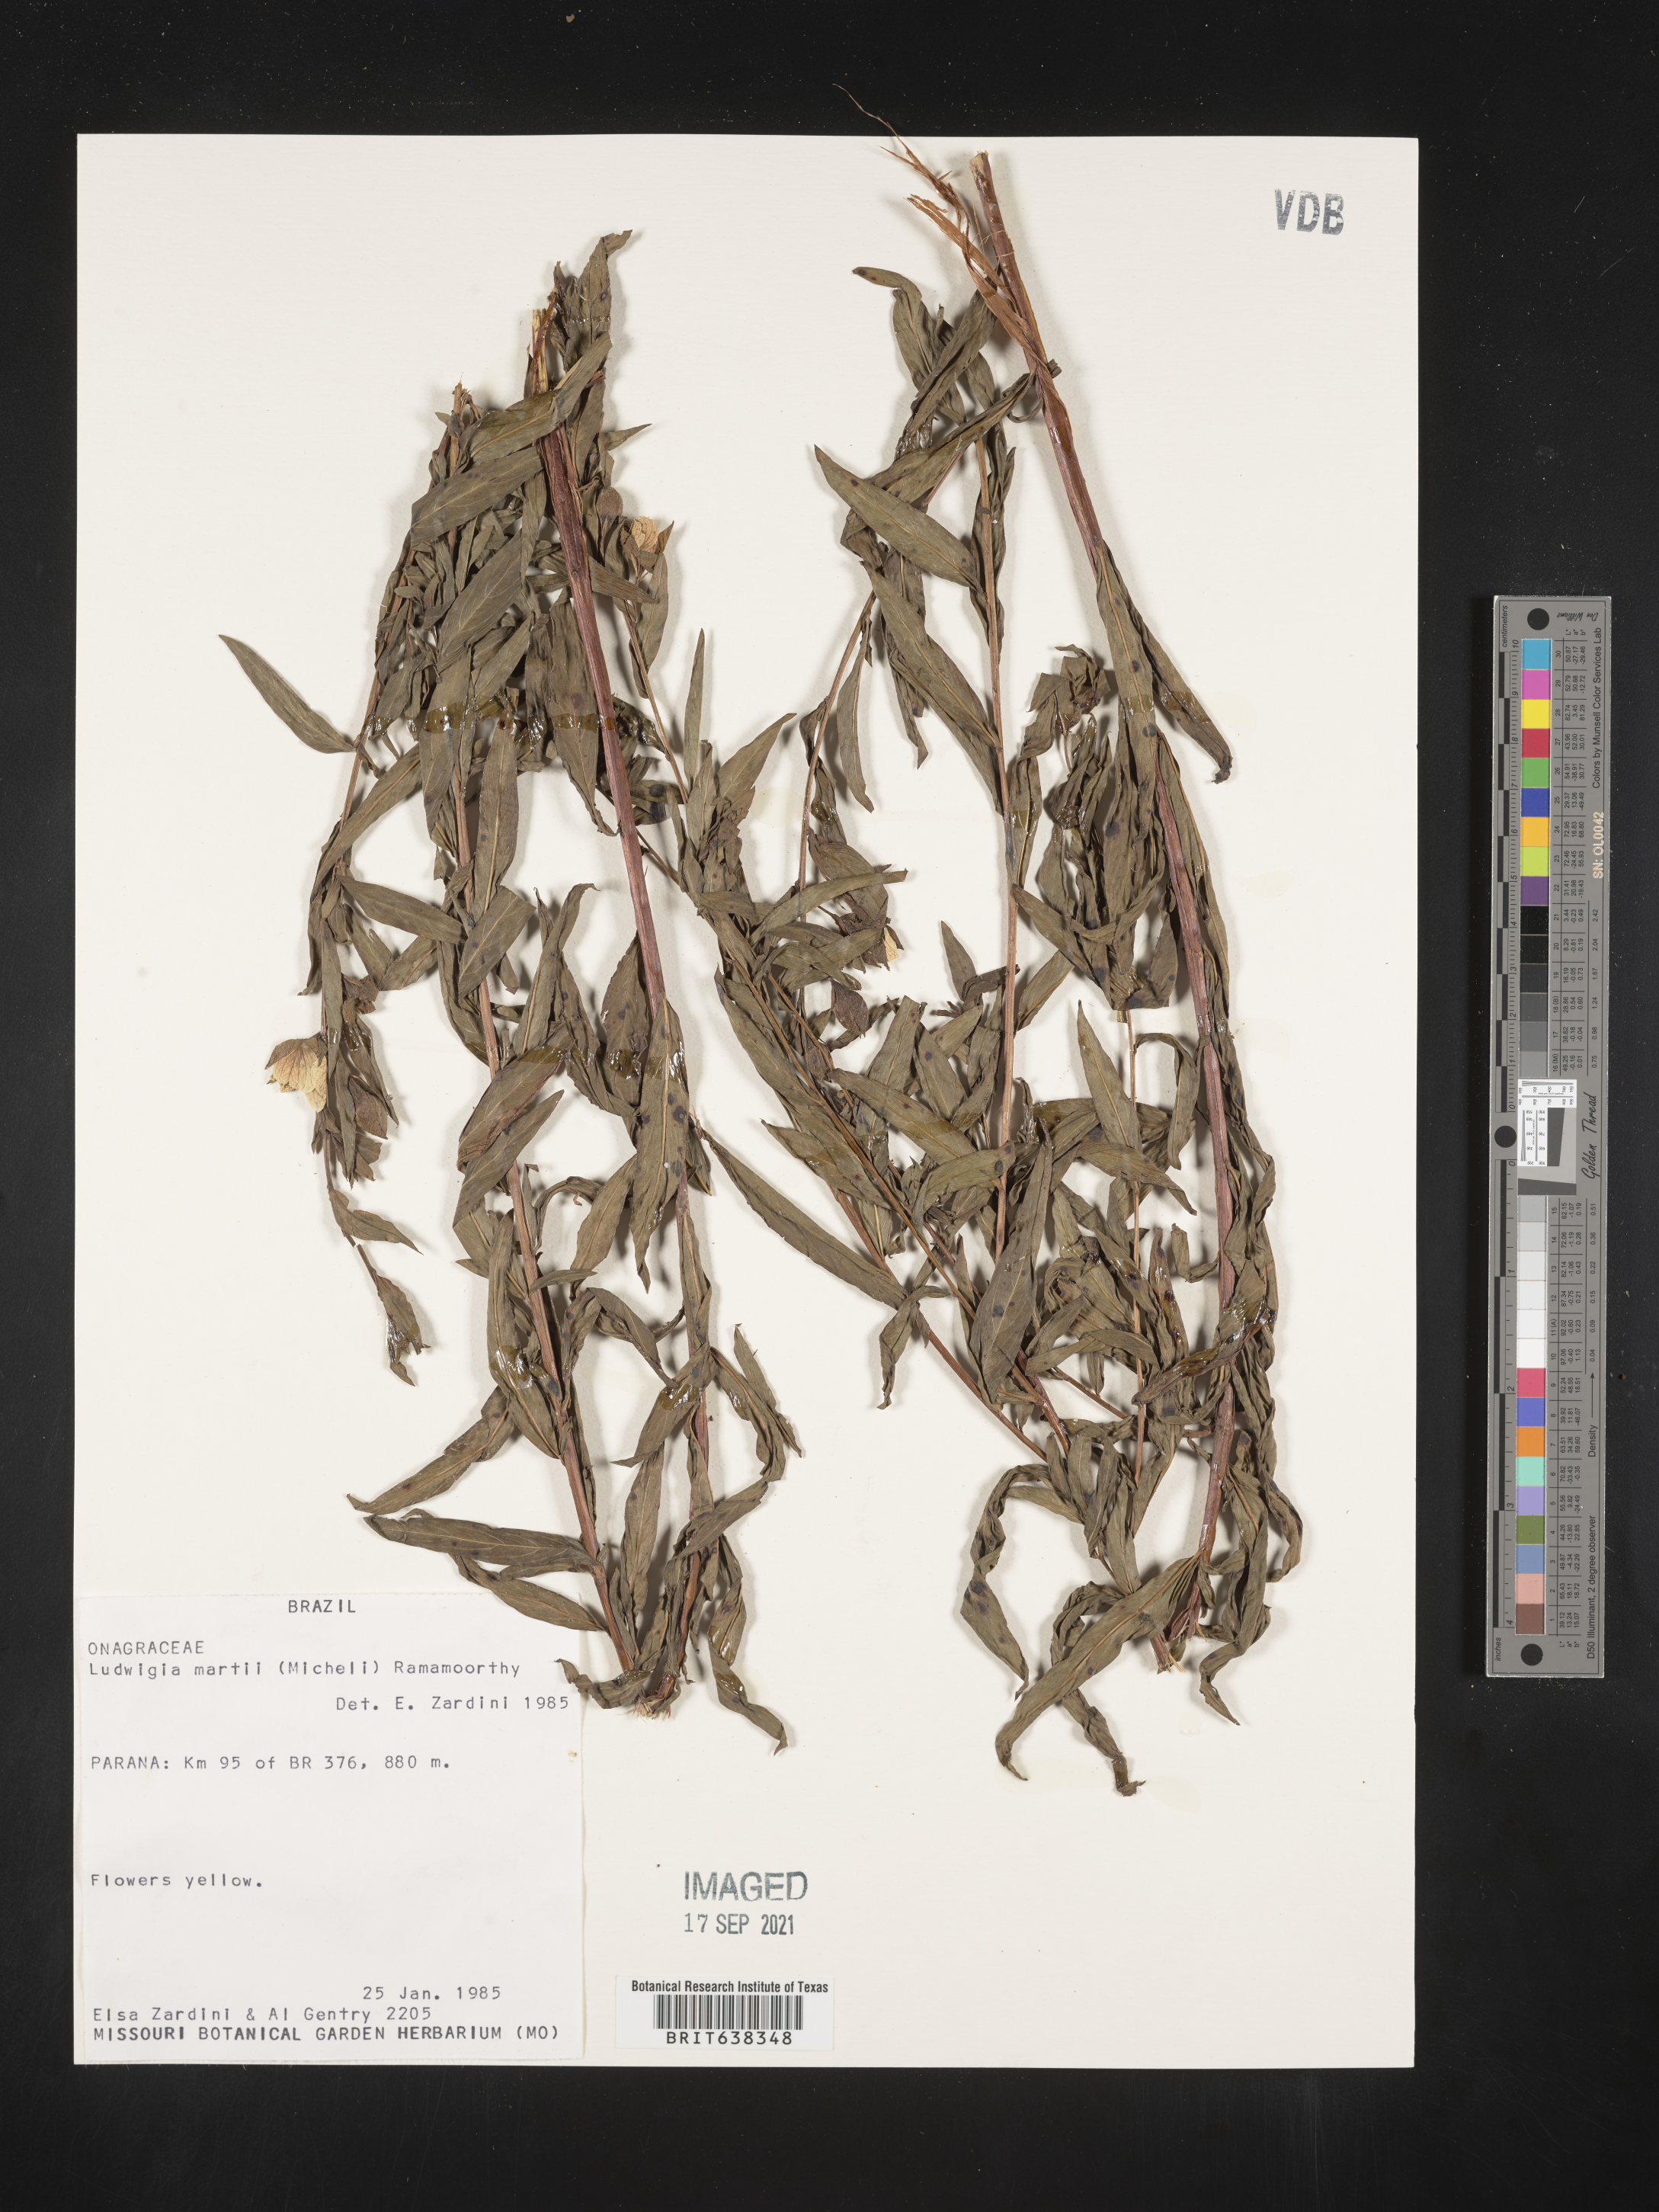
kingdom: Plantae
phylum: Tracheophyta
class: Magnoliopsida
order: Myrtales
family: Onagraceae
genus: Ludwigia
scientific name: Ludwigia
